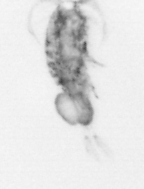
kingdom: Animalia
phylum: Arthropoda
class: Copepoda
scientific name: Copepoda
